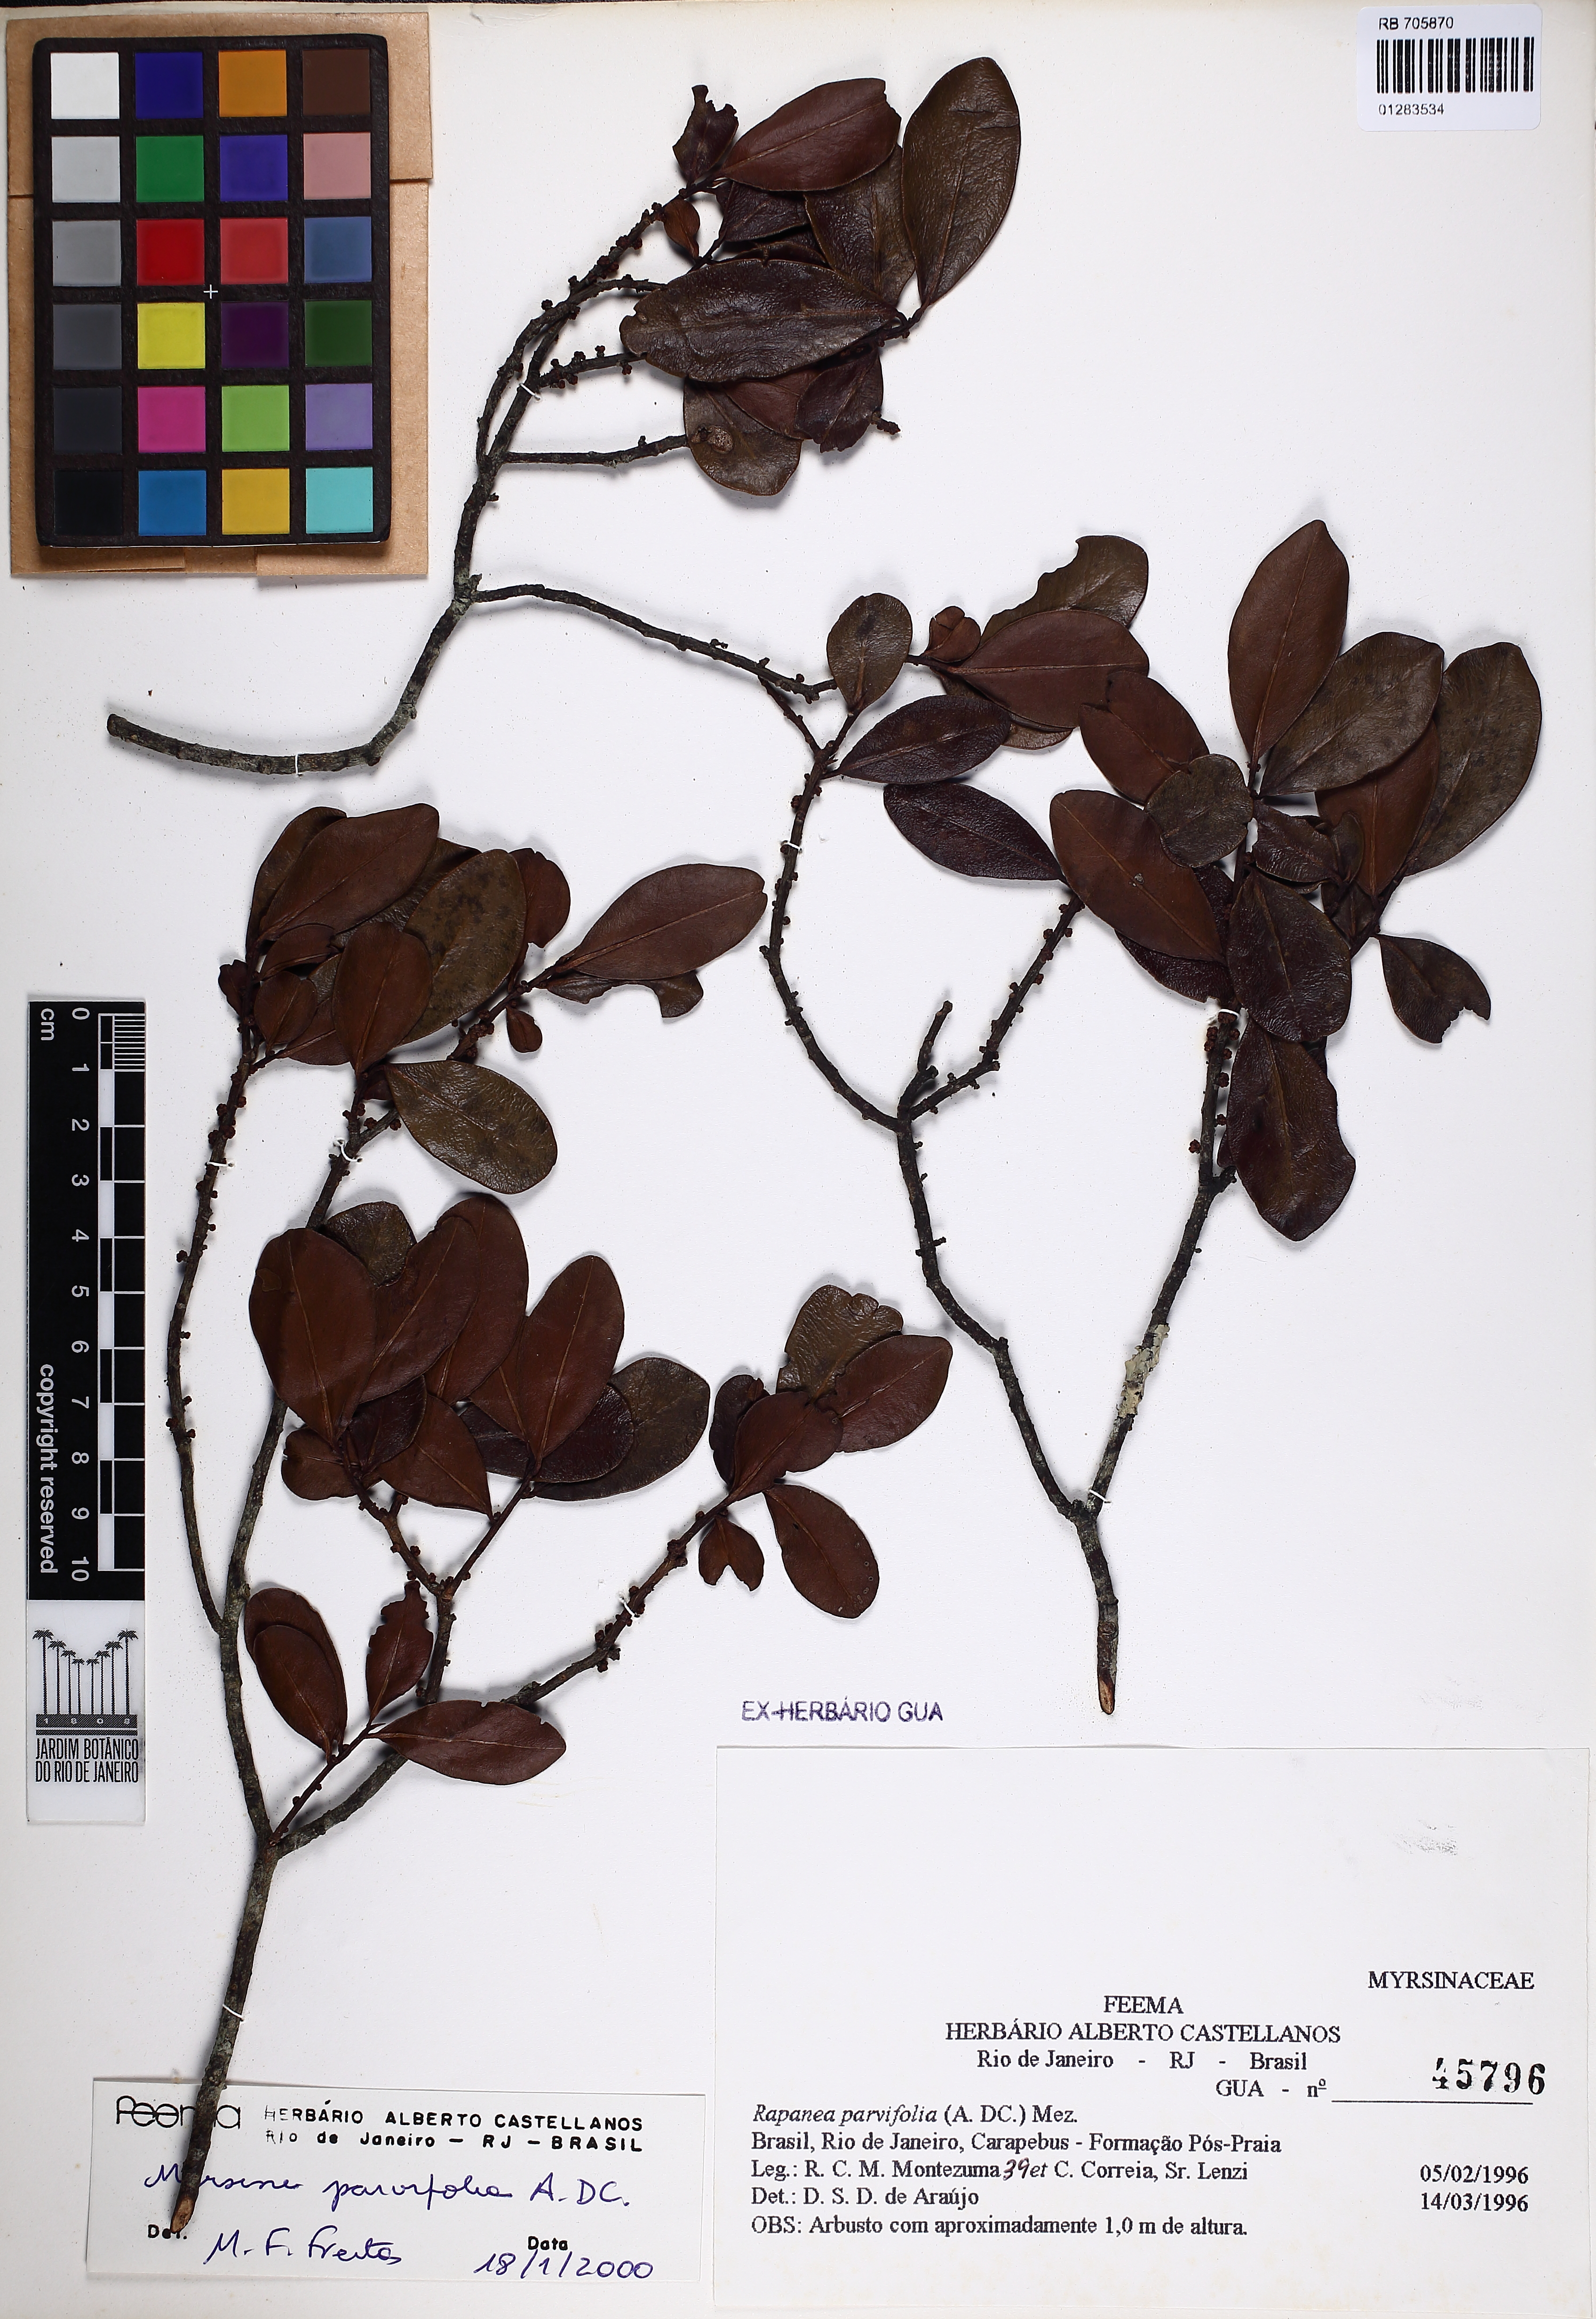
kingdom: Plantae
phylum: Tracheophyta
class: Magnoliopsida
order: Ericales
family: Primulaceae
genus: Myrsine
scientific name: Myrsine parvifolia
